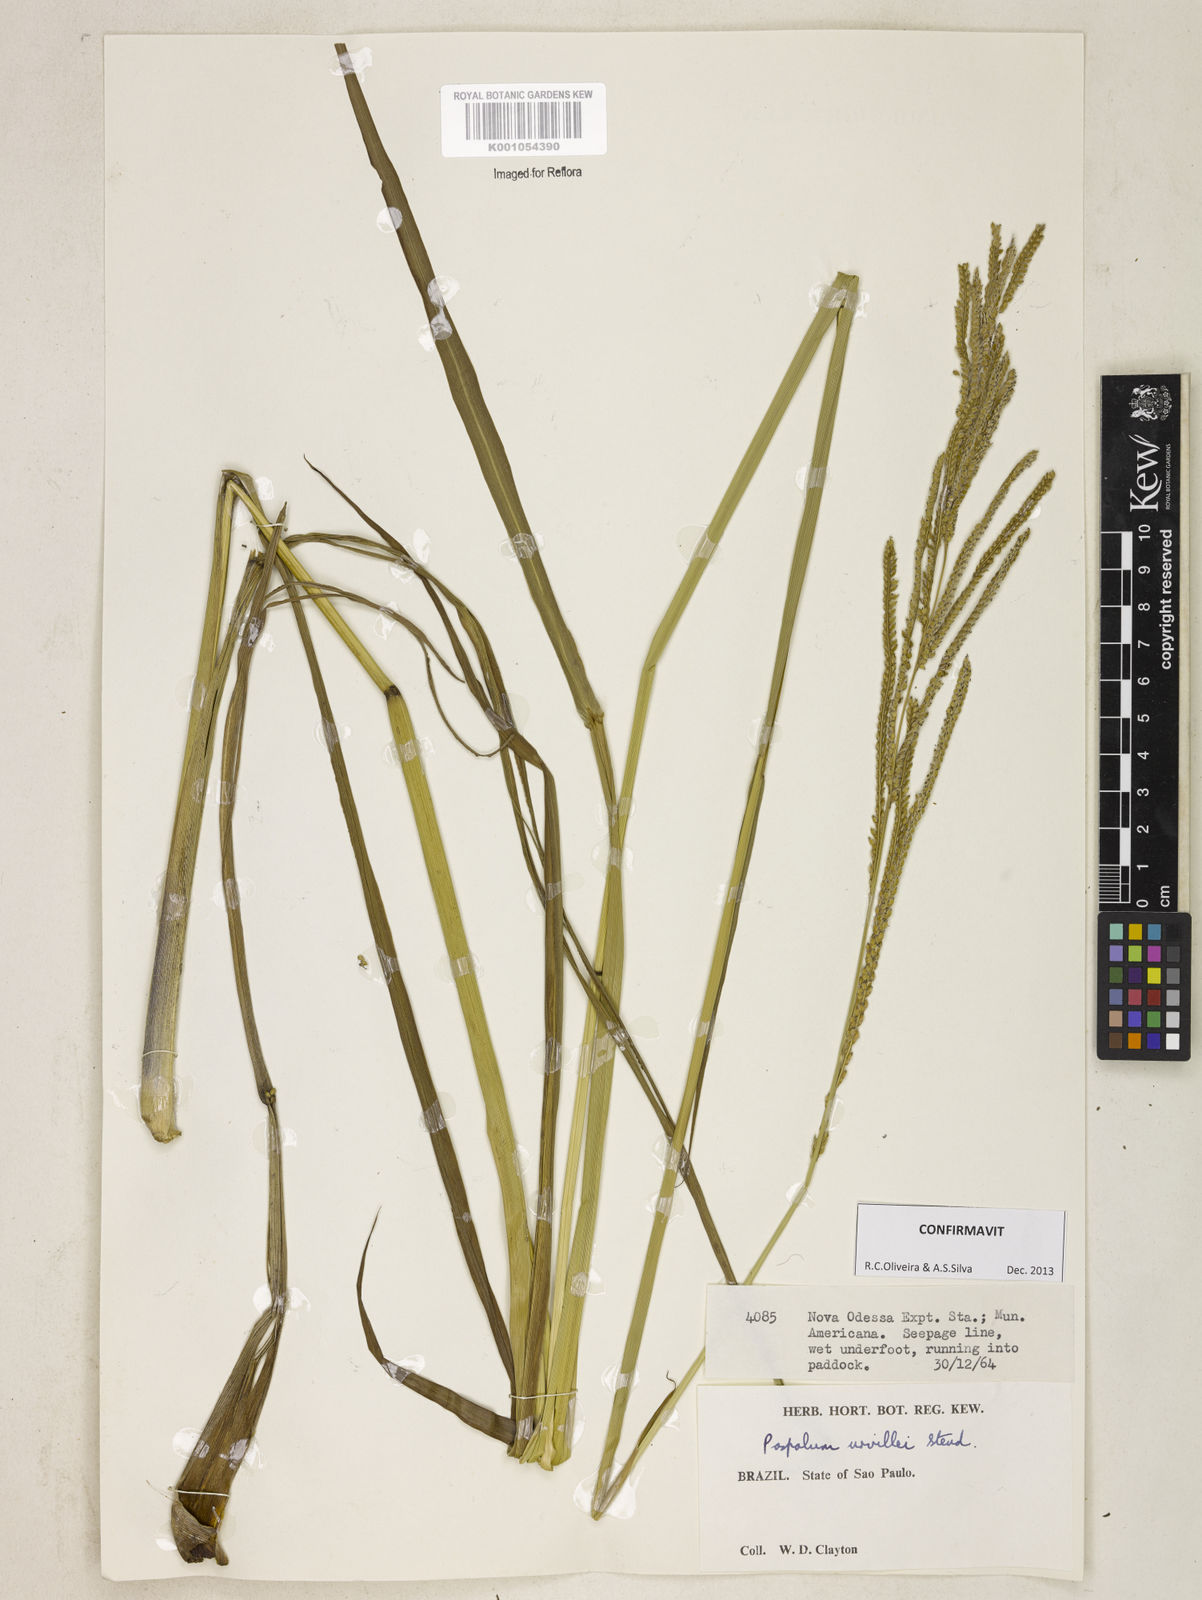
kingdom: Plantae
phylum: Tracheophyta
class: Liliopsida
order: Poales
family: Poaceae
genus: Paspalum
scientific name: Paspalum urvillei
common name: Vasey's grass
